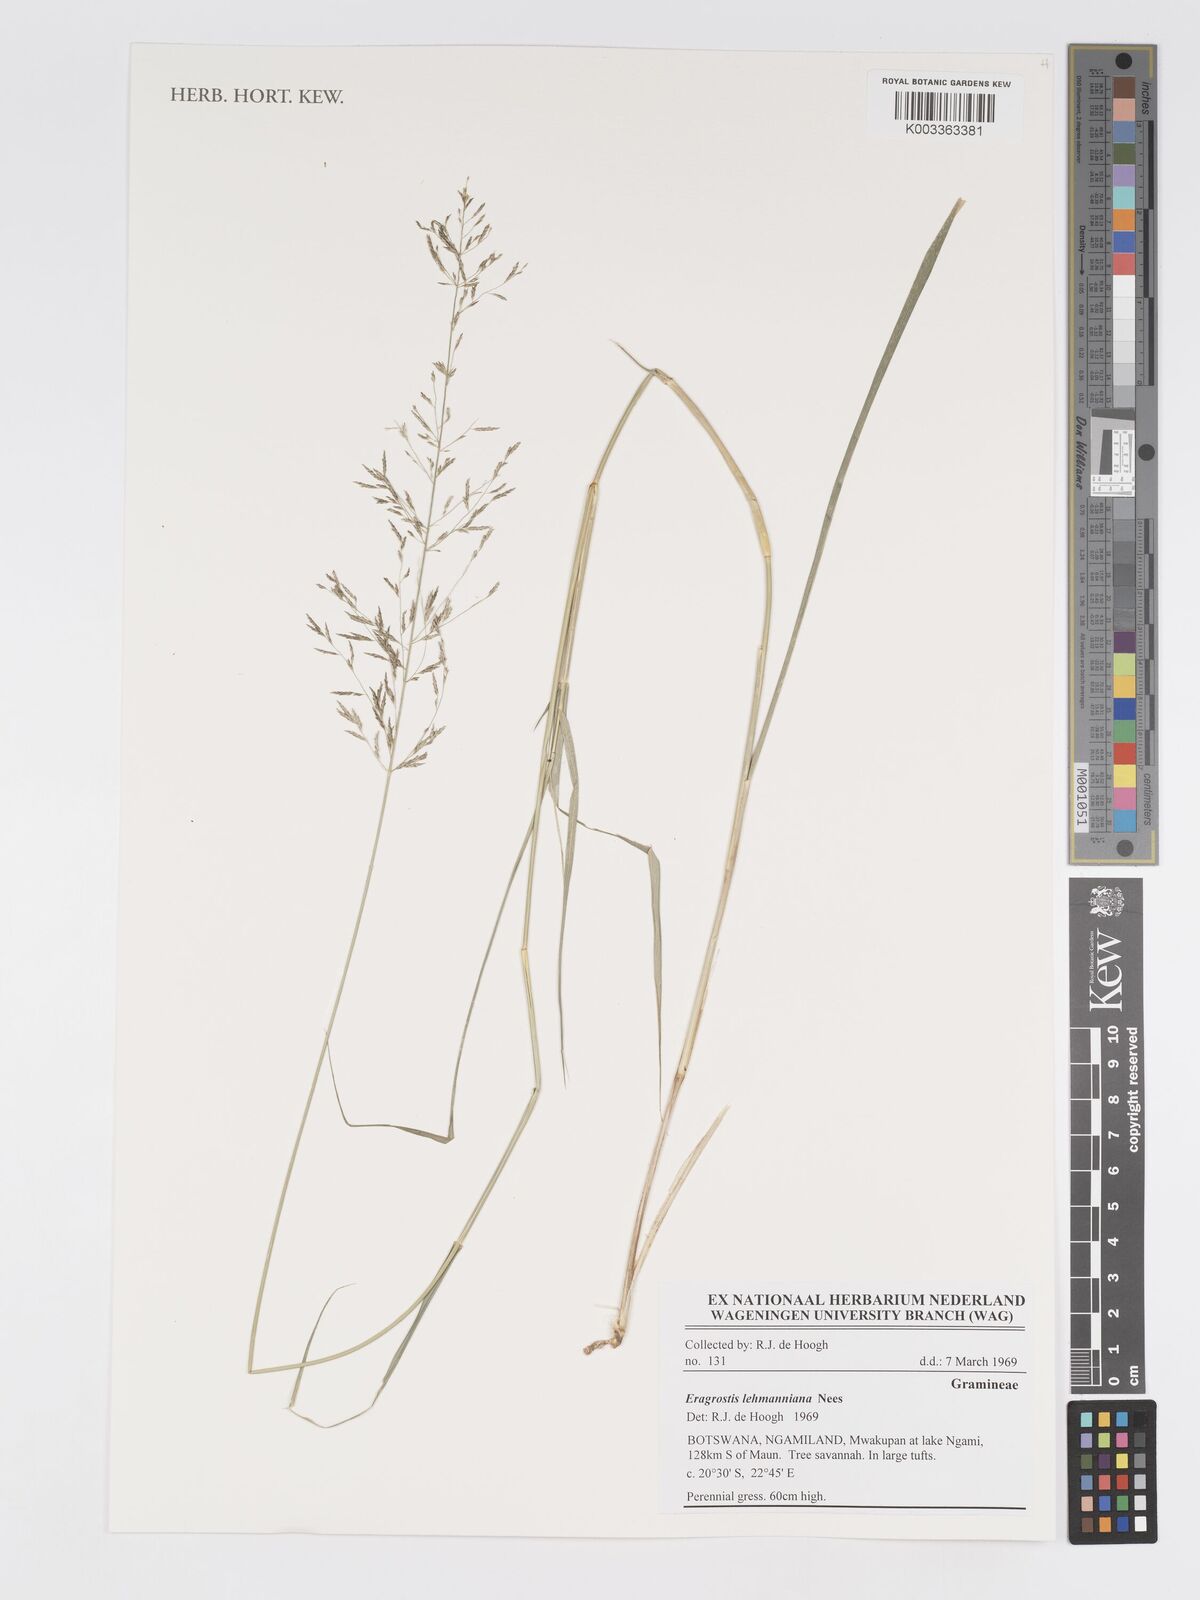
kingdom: Plantae
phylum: Tracheophyta
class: Liliopsida
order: Poales
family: Poaceae
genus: Eragrostis
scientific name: Eragrostis lehmanniana
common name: Lehmann lovegrass
